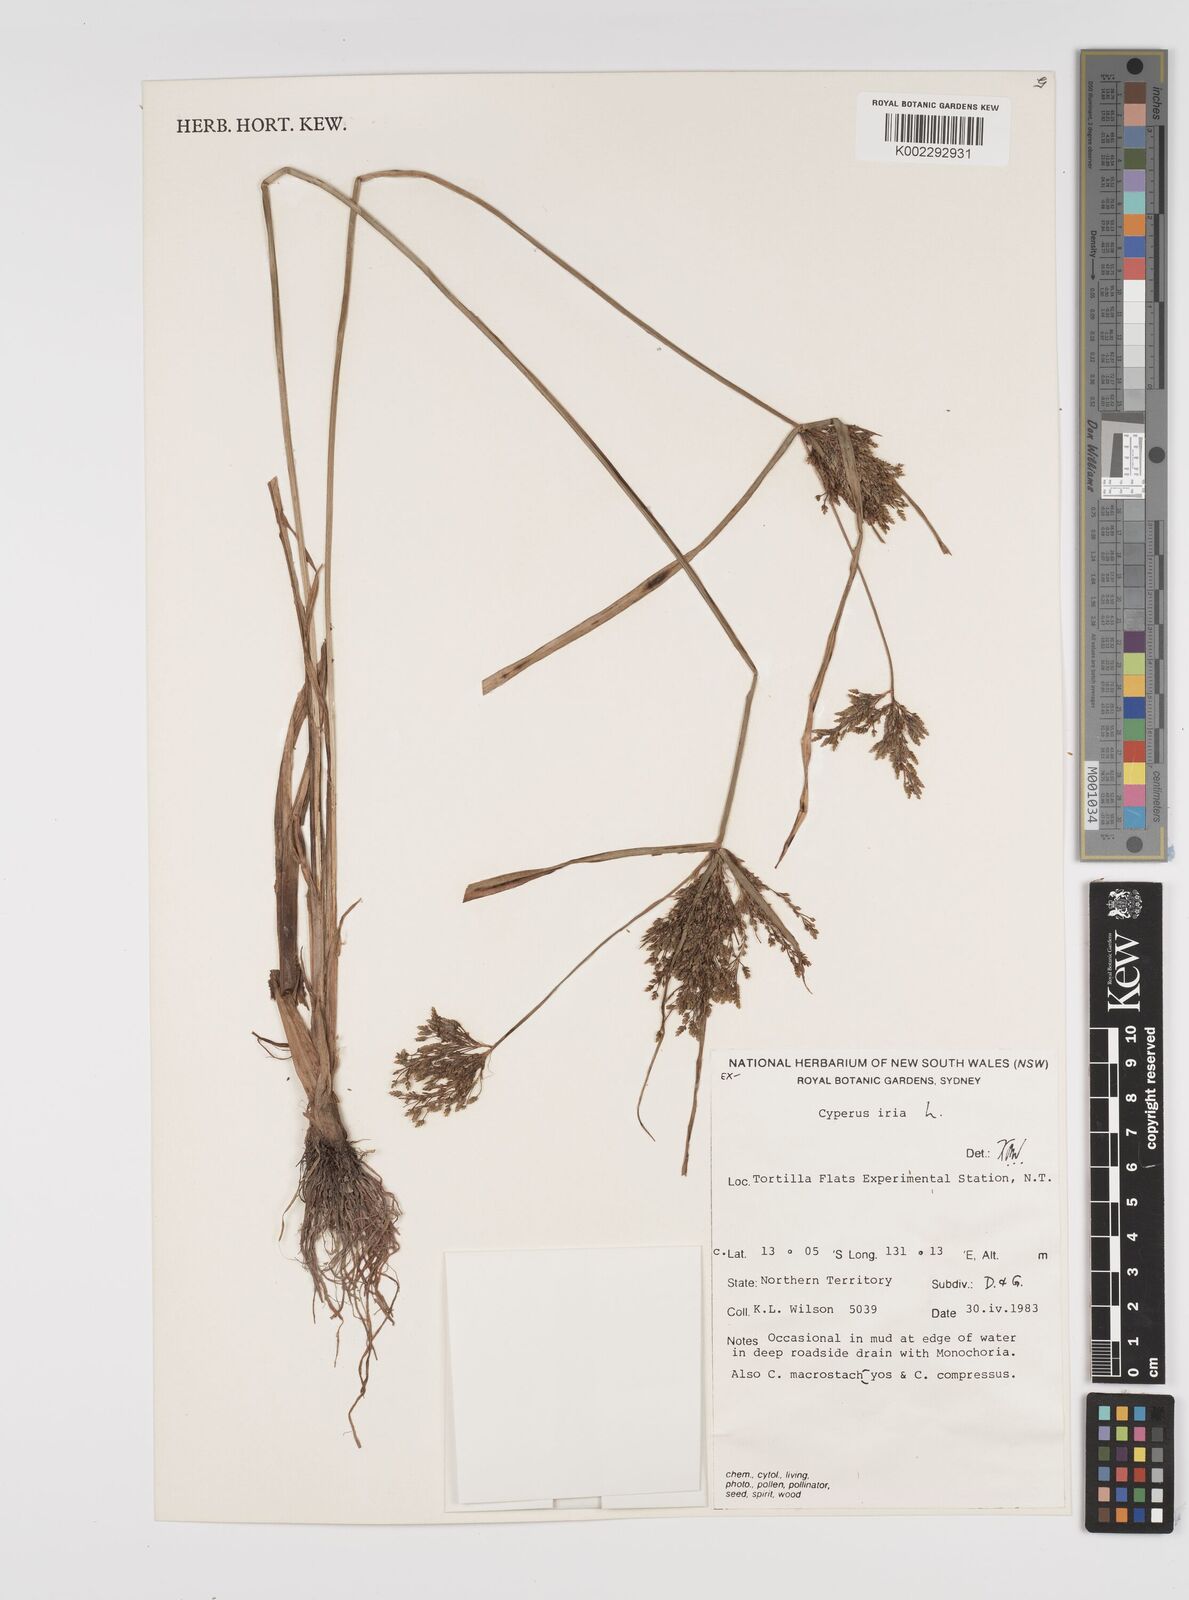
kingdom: Plantae
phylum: Tracheophyta
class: Liliopsida
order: Poales
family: Cyperaceae
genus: Cyperus
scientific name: Cyperus iria
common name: Ricefield flatsedge
